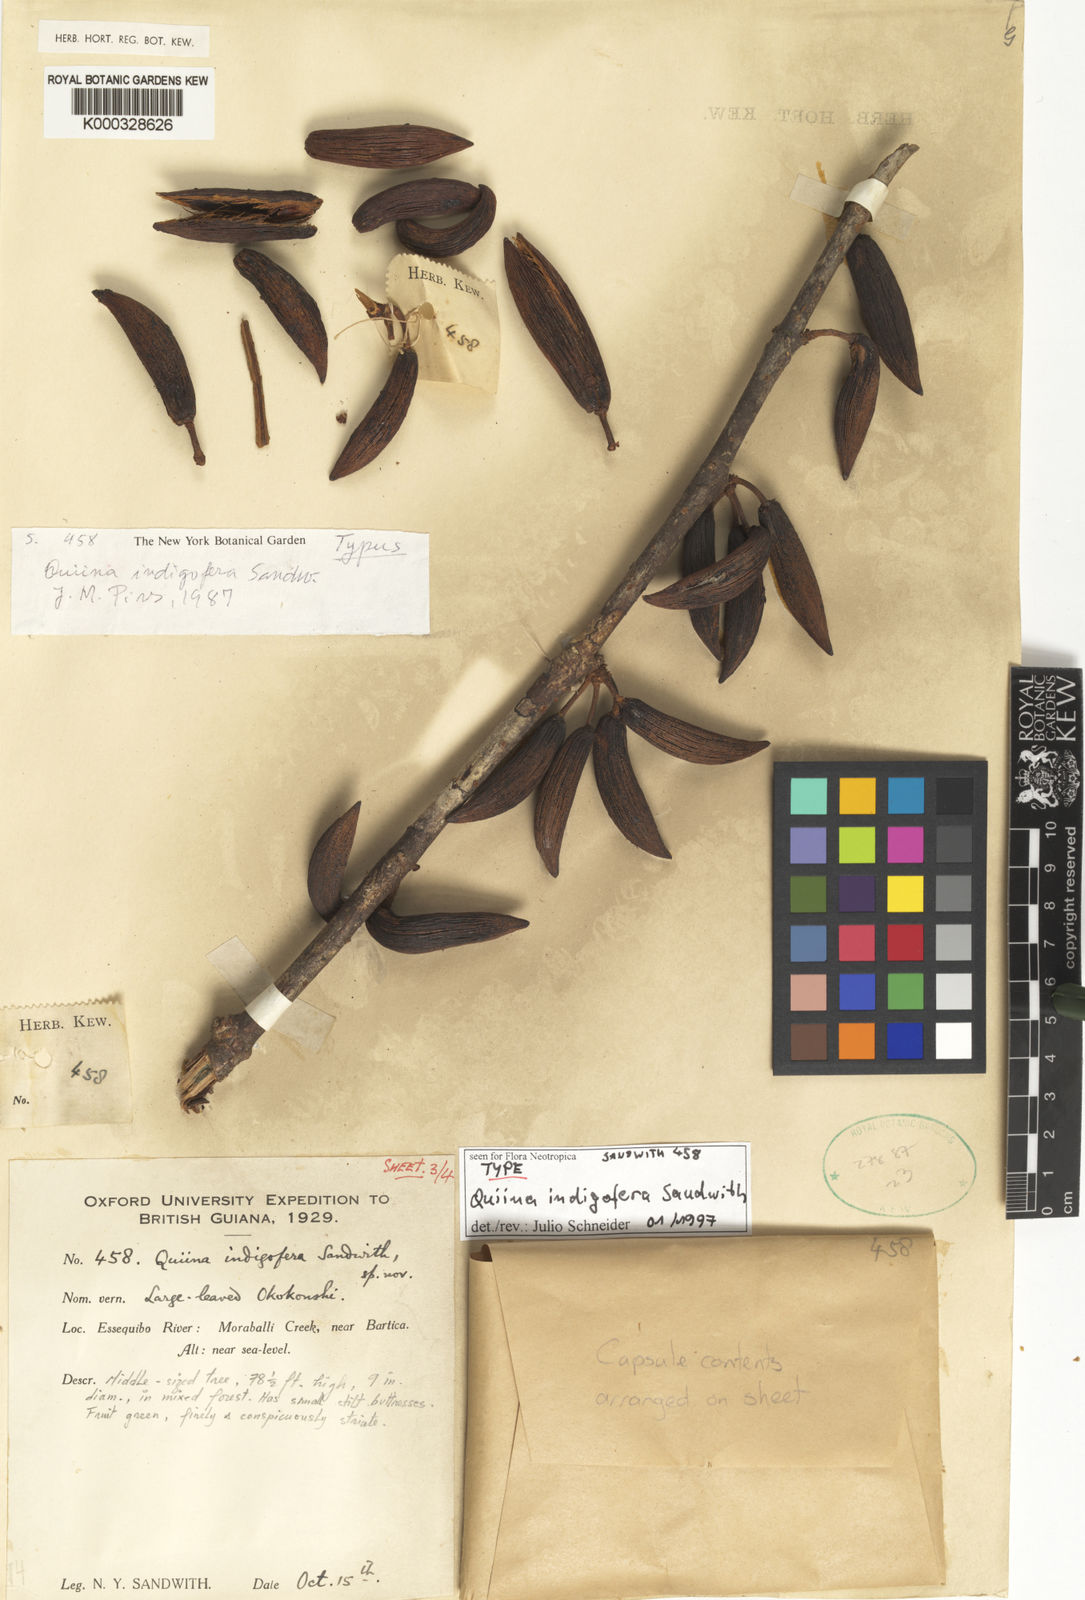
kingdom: Plantae
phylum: Tracheophyta
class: Magnoliopsida
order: Malpighiales
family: Quiinaceae
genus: Quiina
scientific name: Quiina indigofera
